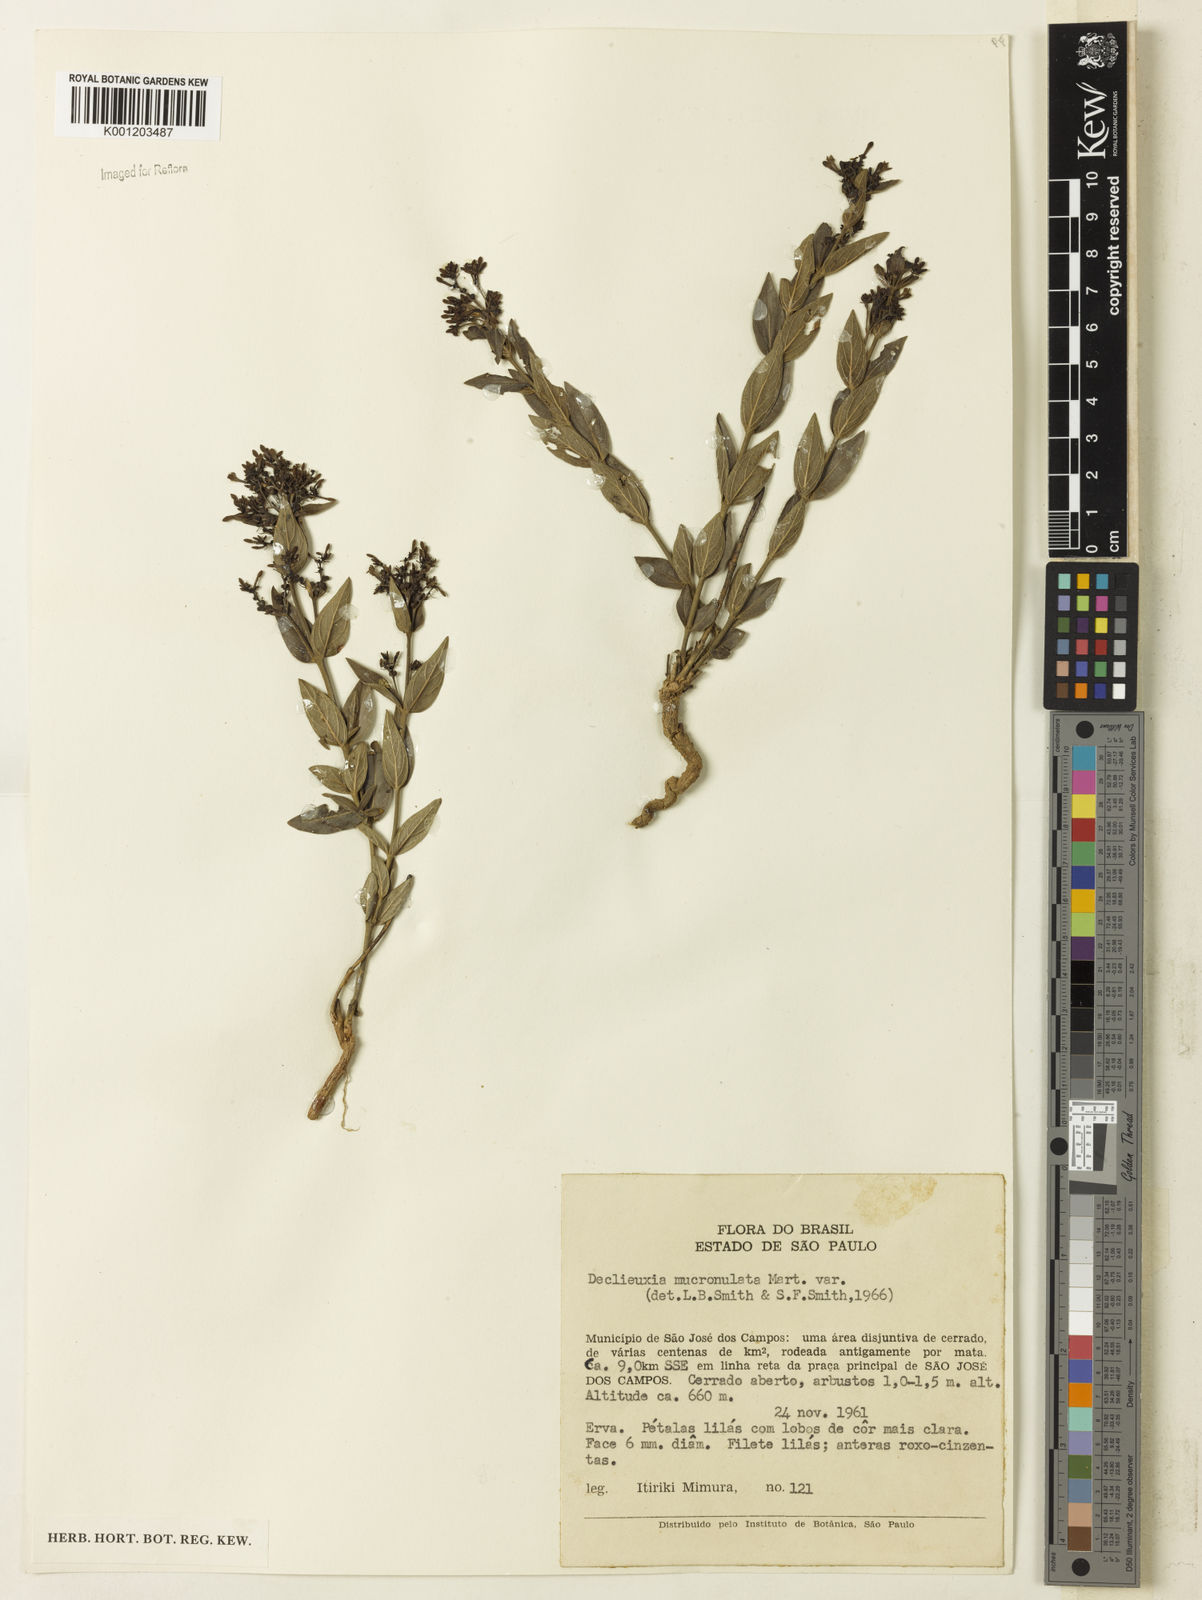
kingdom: Plantae
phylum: Tracheophyta
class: Magnoliopsida
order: Gentianales
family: Rubiaceae
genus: Declieuxia
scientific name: Declieuxia fruticosa
